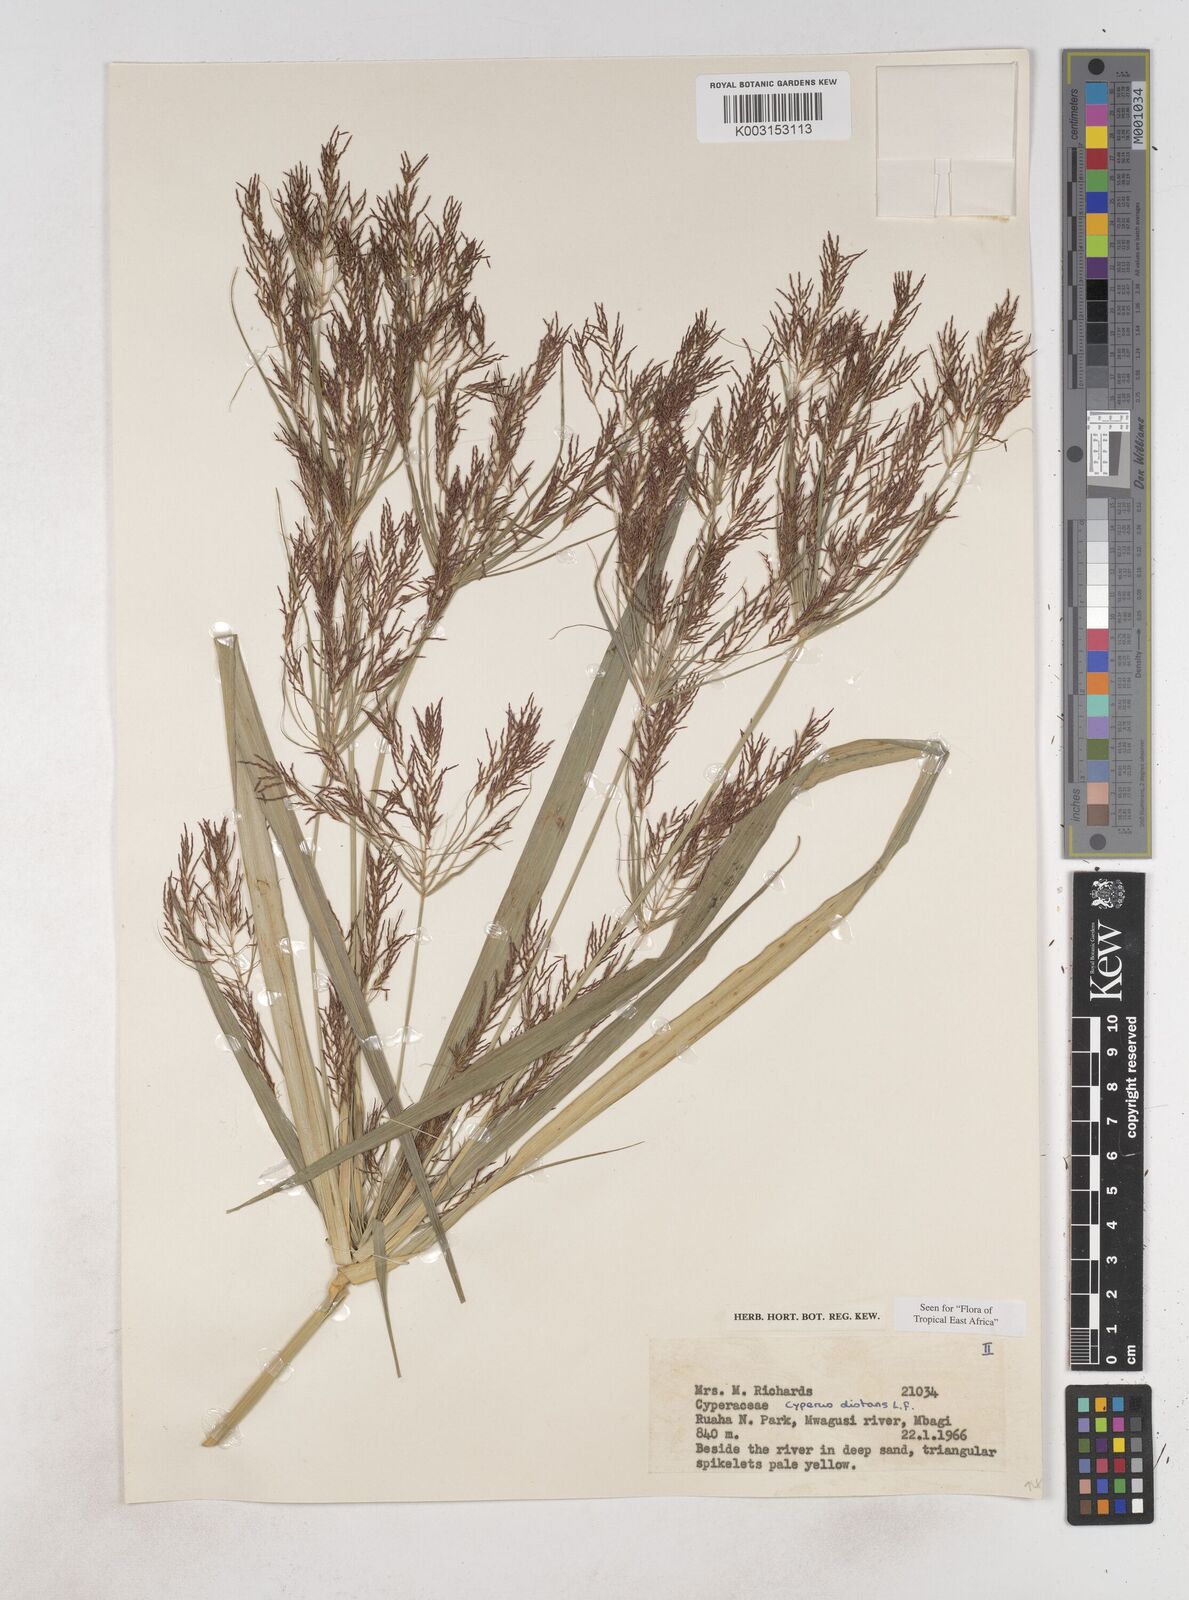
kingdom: Plantae
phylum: Tracheophyta
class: Liliopsida
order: Poales
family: Cyperaceae
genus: Cyperus
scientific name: Cyperus distans
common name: Slender cyperus
